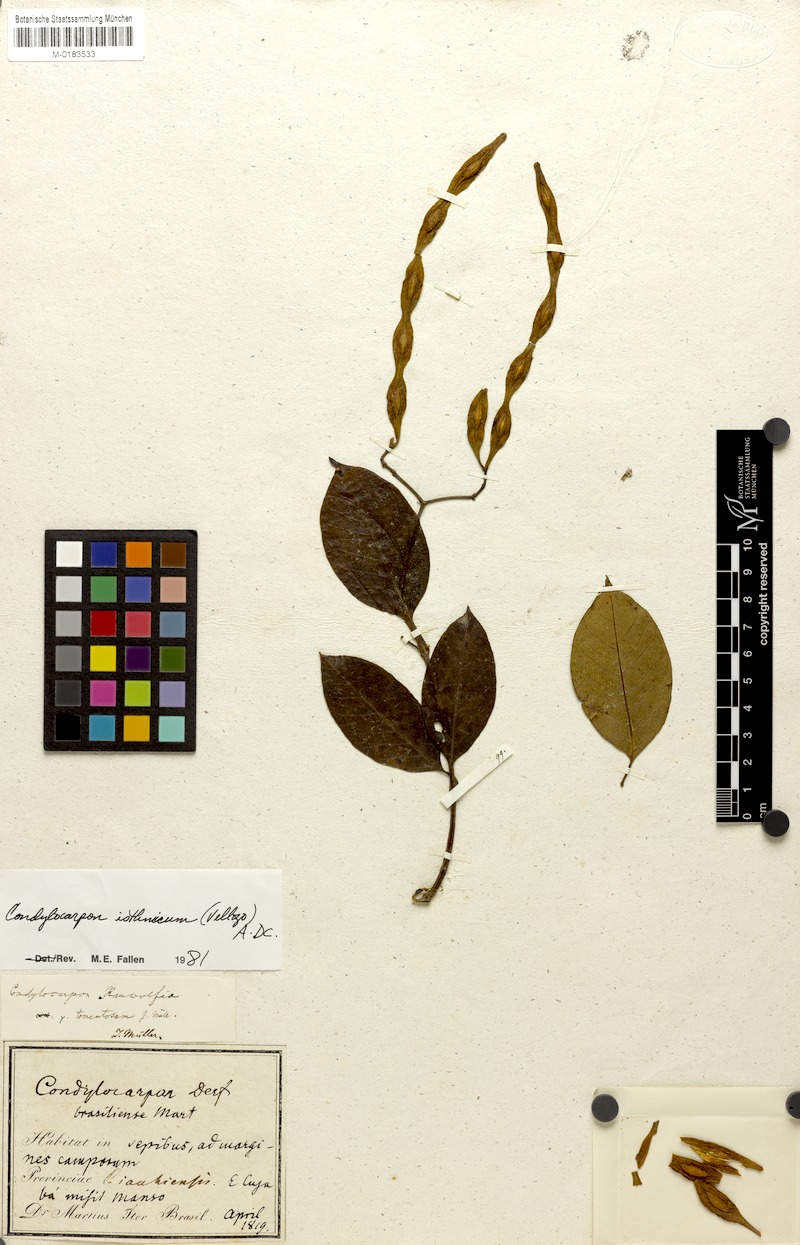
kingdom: Plantae
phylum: Tracheophyta
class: Magnoliopsida
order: Gentianales
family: Apocynaceae
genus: Condylocarpon
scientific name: Condylocarpon isthmicum
